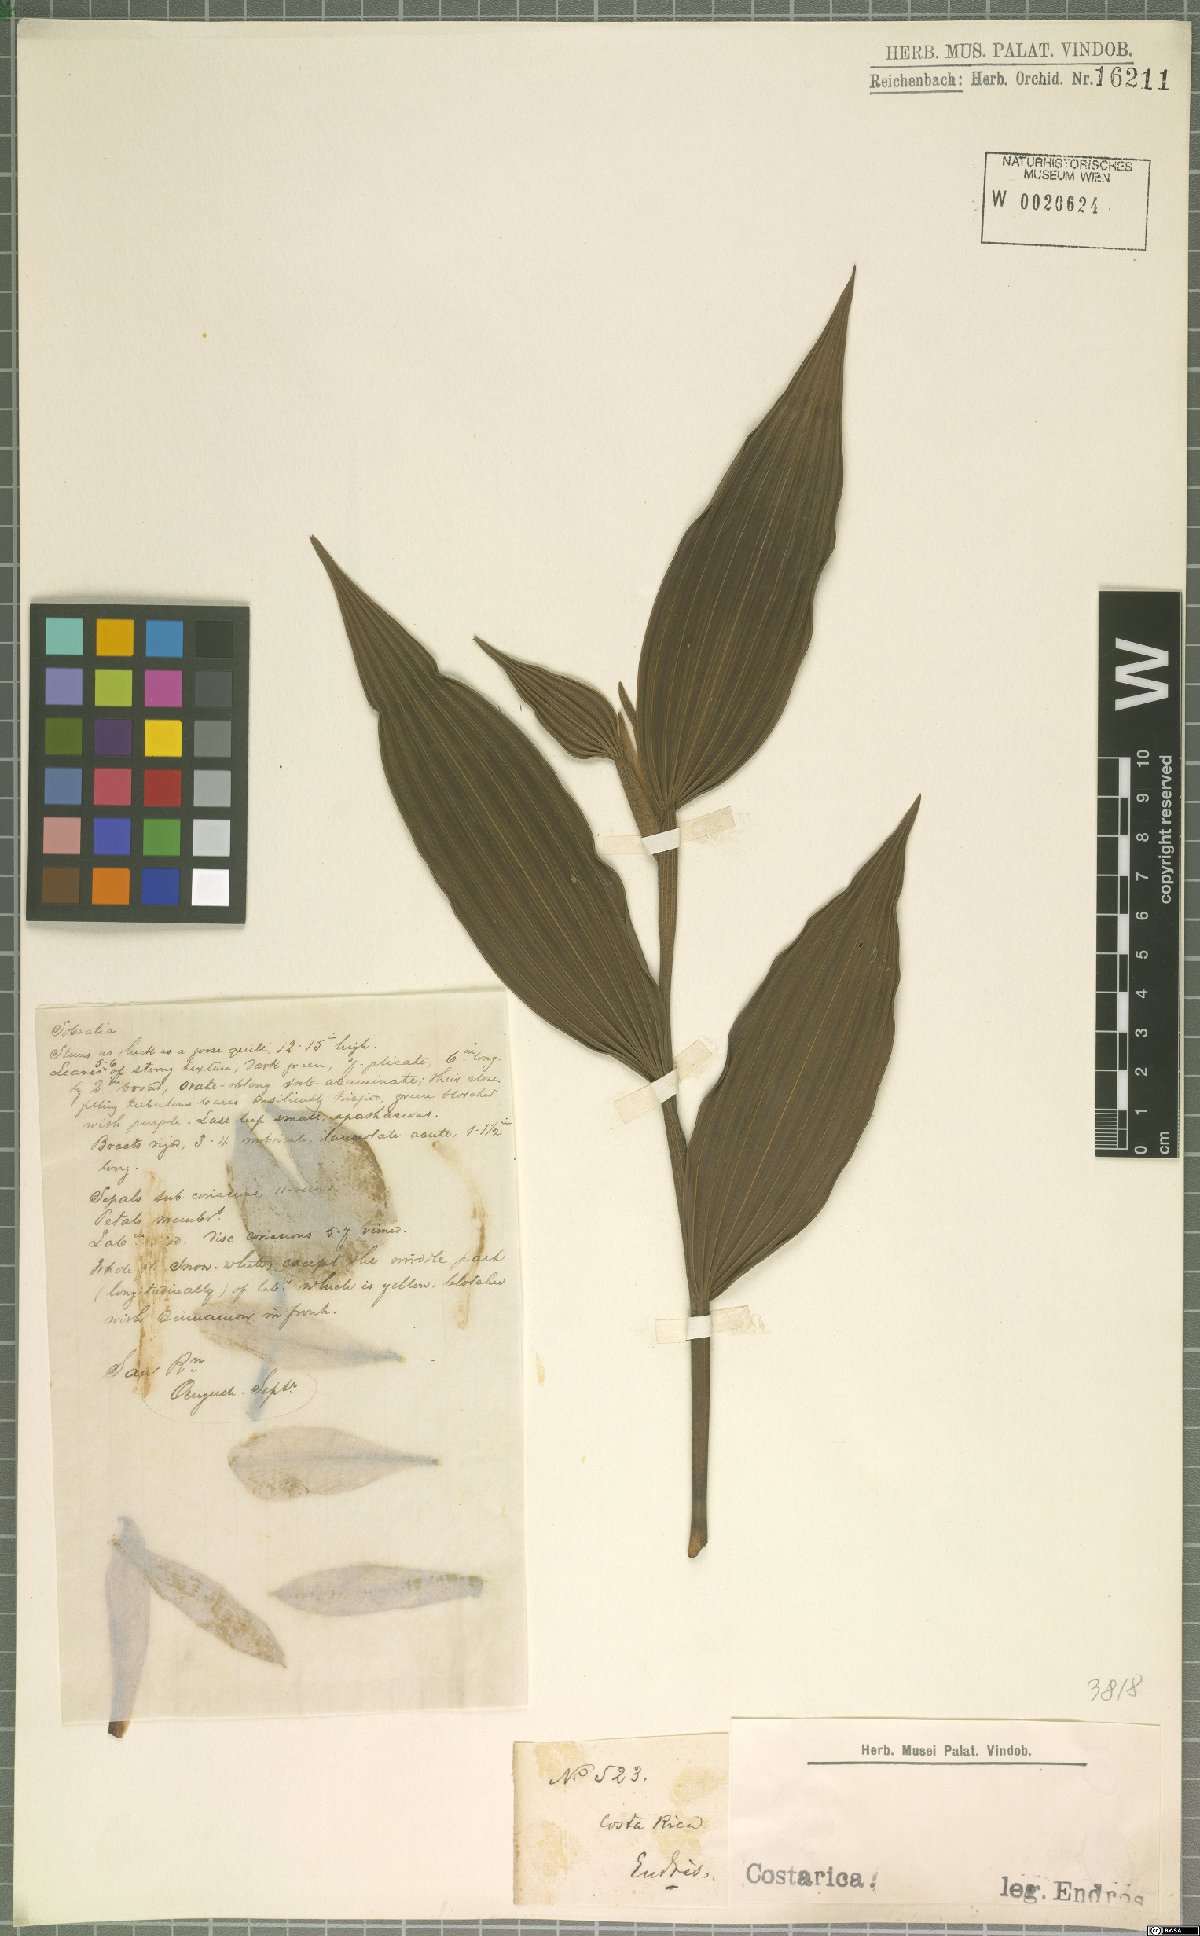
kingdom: Plantae
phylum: Tracheophyta
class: Liliopsida
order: Asparagales
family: Orchidaceae
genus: Sobralia
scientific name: Sobralia
